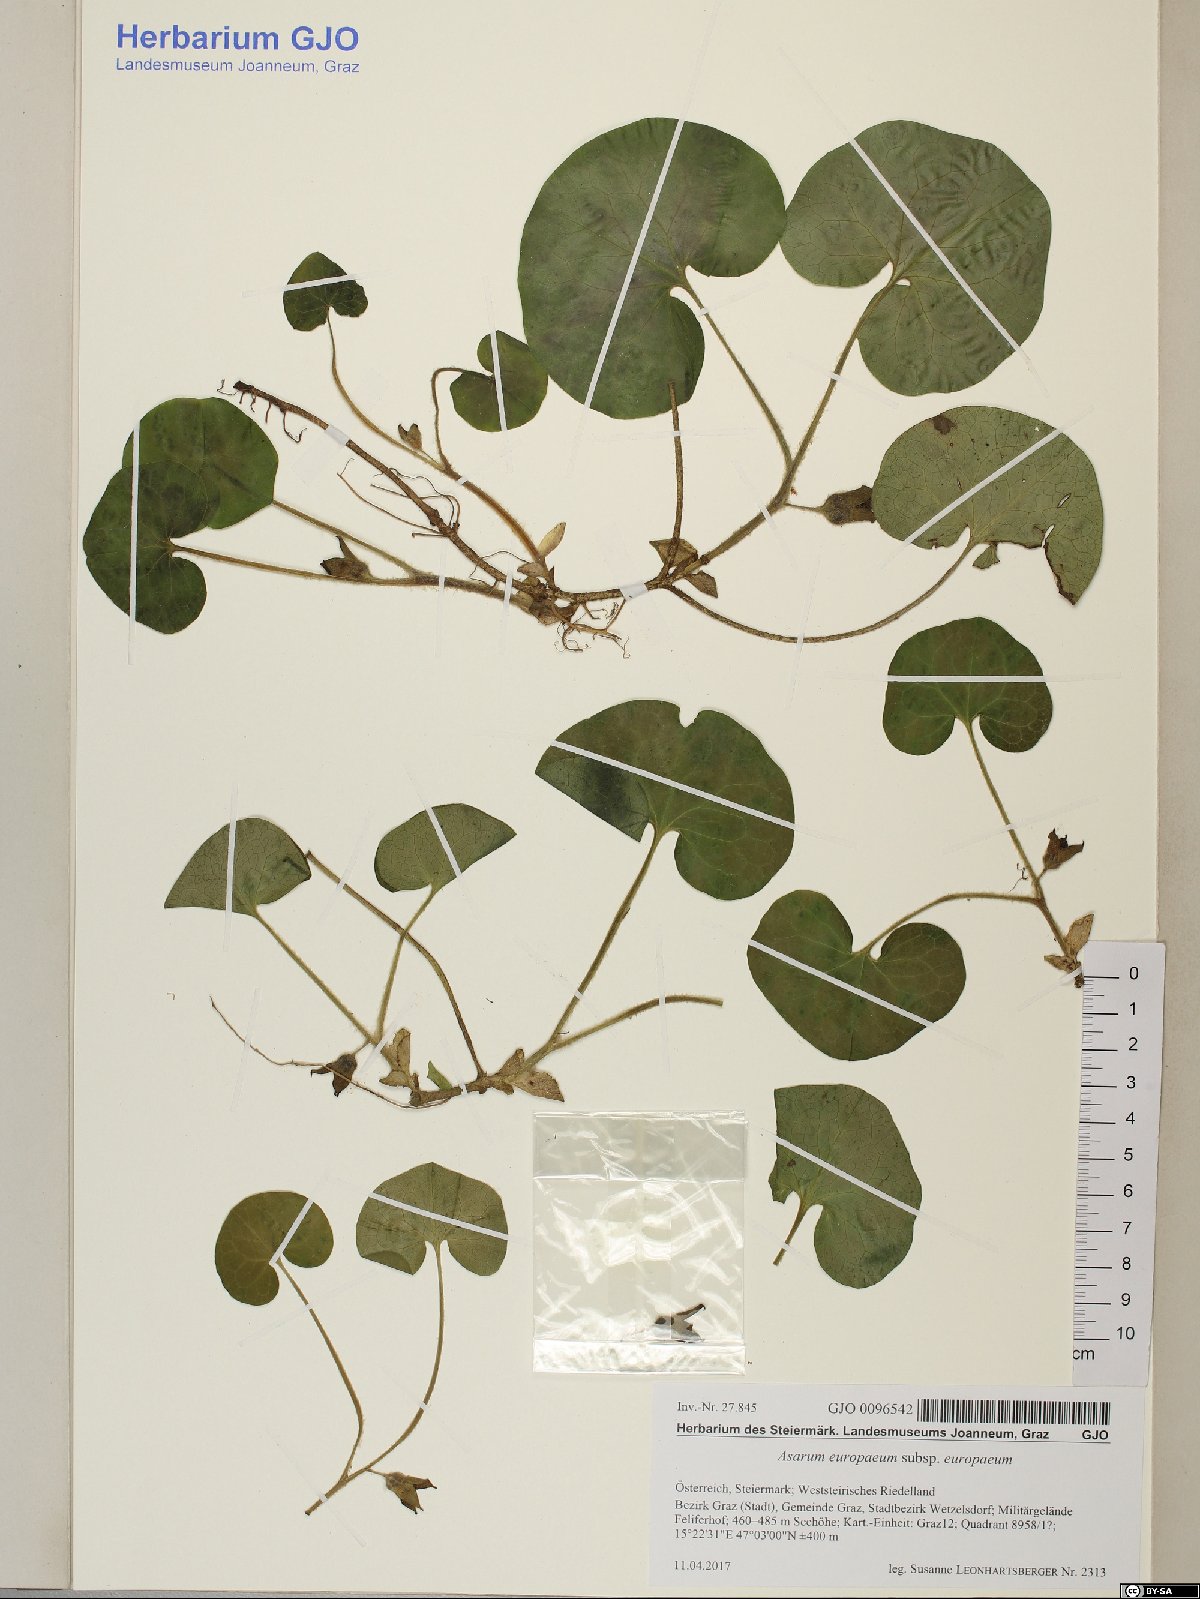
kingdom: Plantae
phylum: Tracheophyta
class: Magnoliopsida
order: Piperales
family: Aristolochiaceae
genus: Asarum
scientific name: Asarum europaeum
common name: Asarabacca
